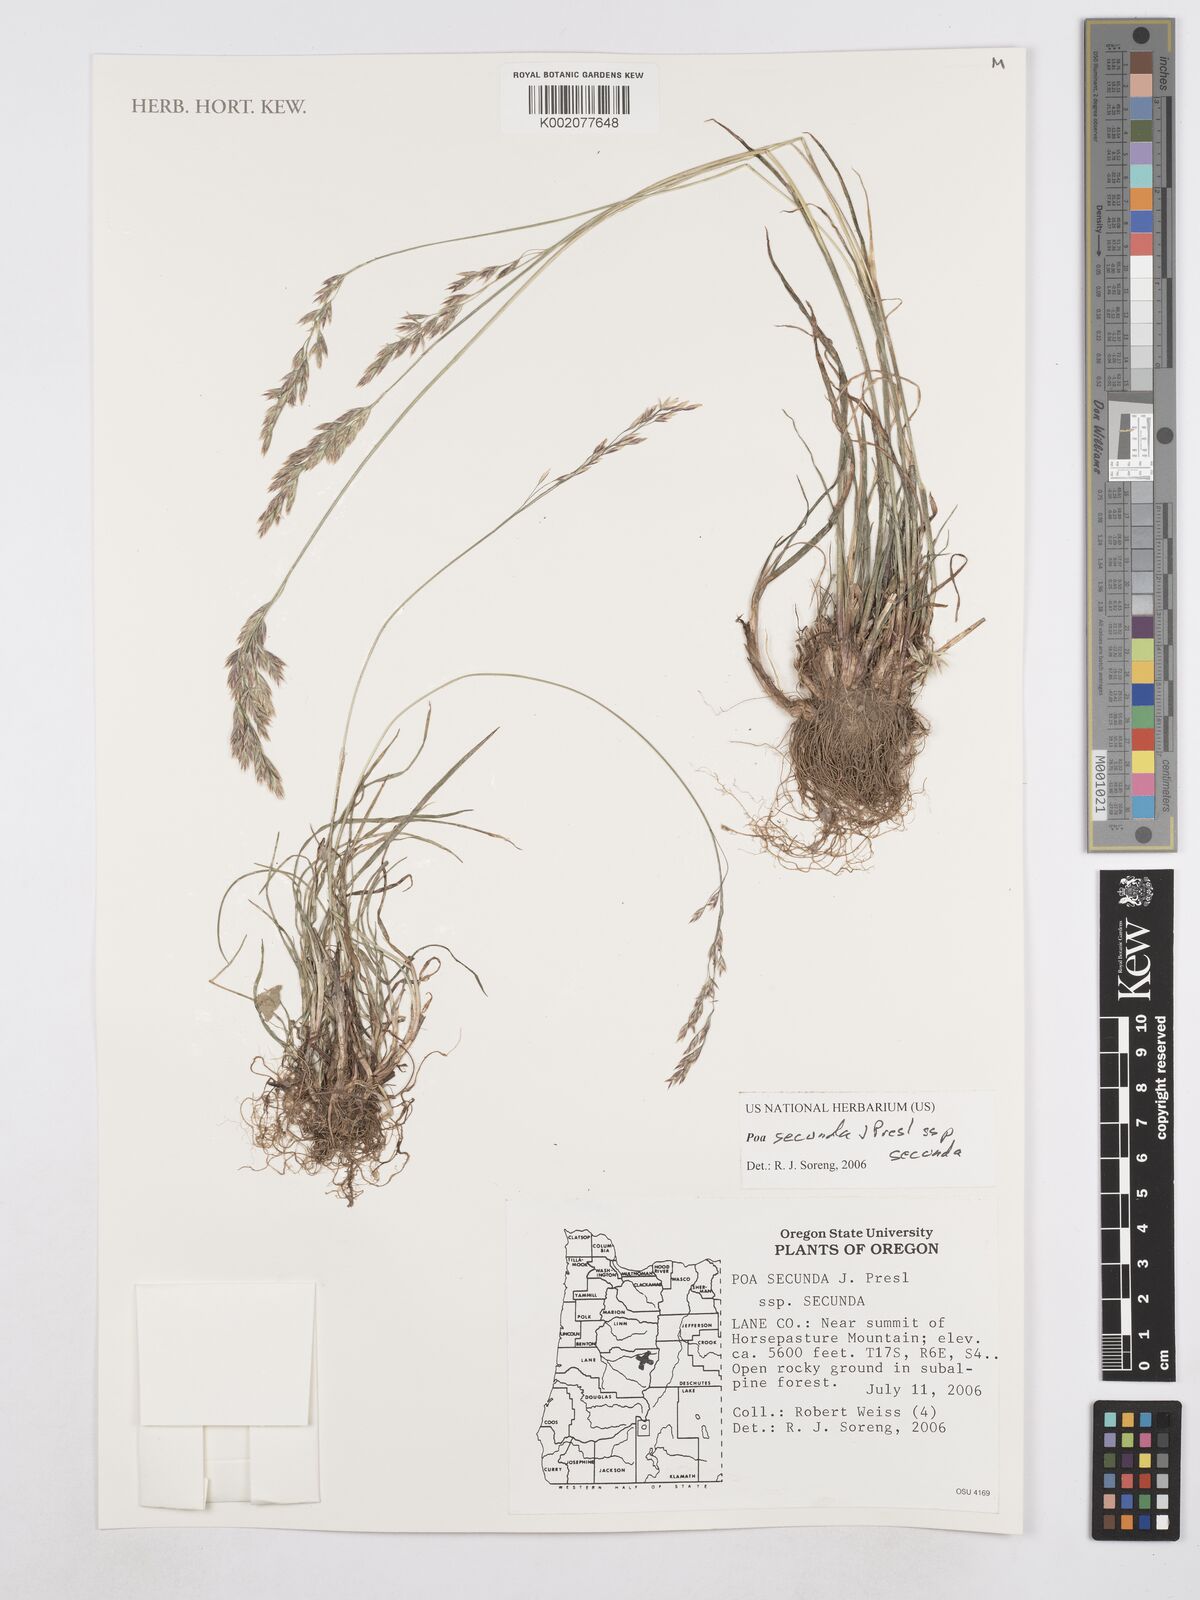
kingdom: Plantae
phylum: Tracheophyta
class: Liliopsida
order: Poales
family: Poaceae
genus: Poa
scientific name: Poa secunda
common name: Sandberg bluegrass
